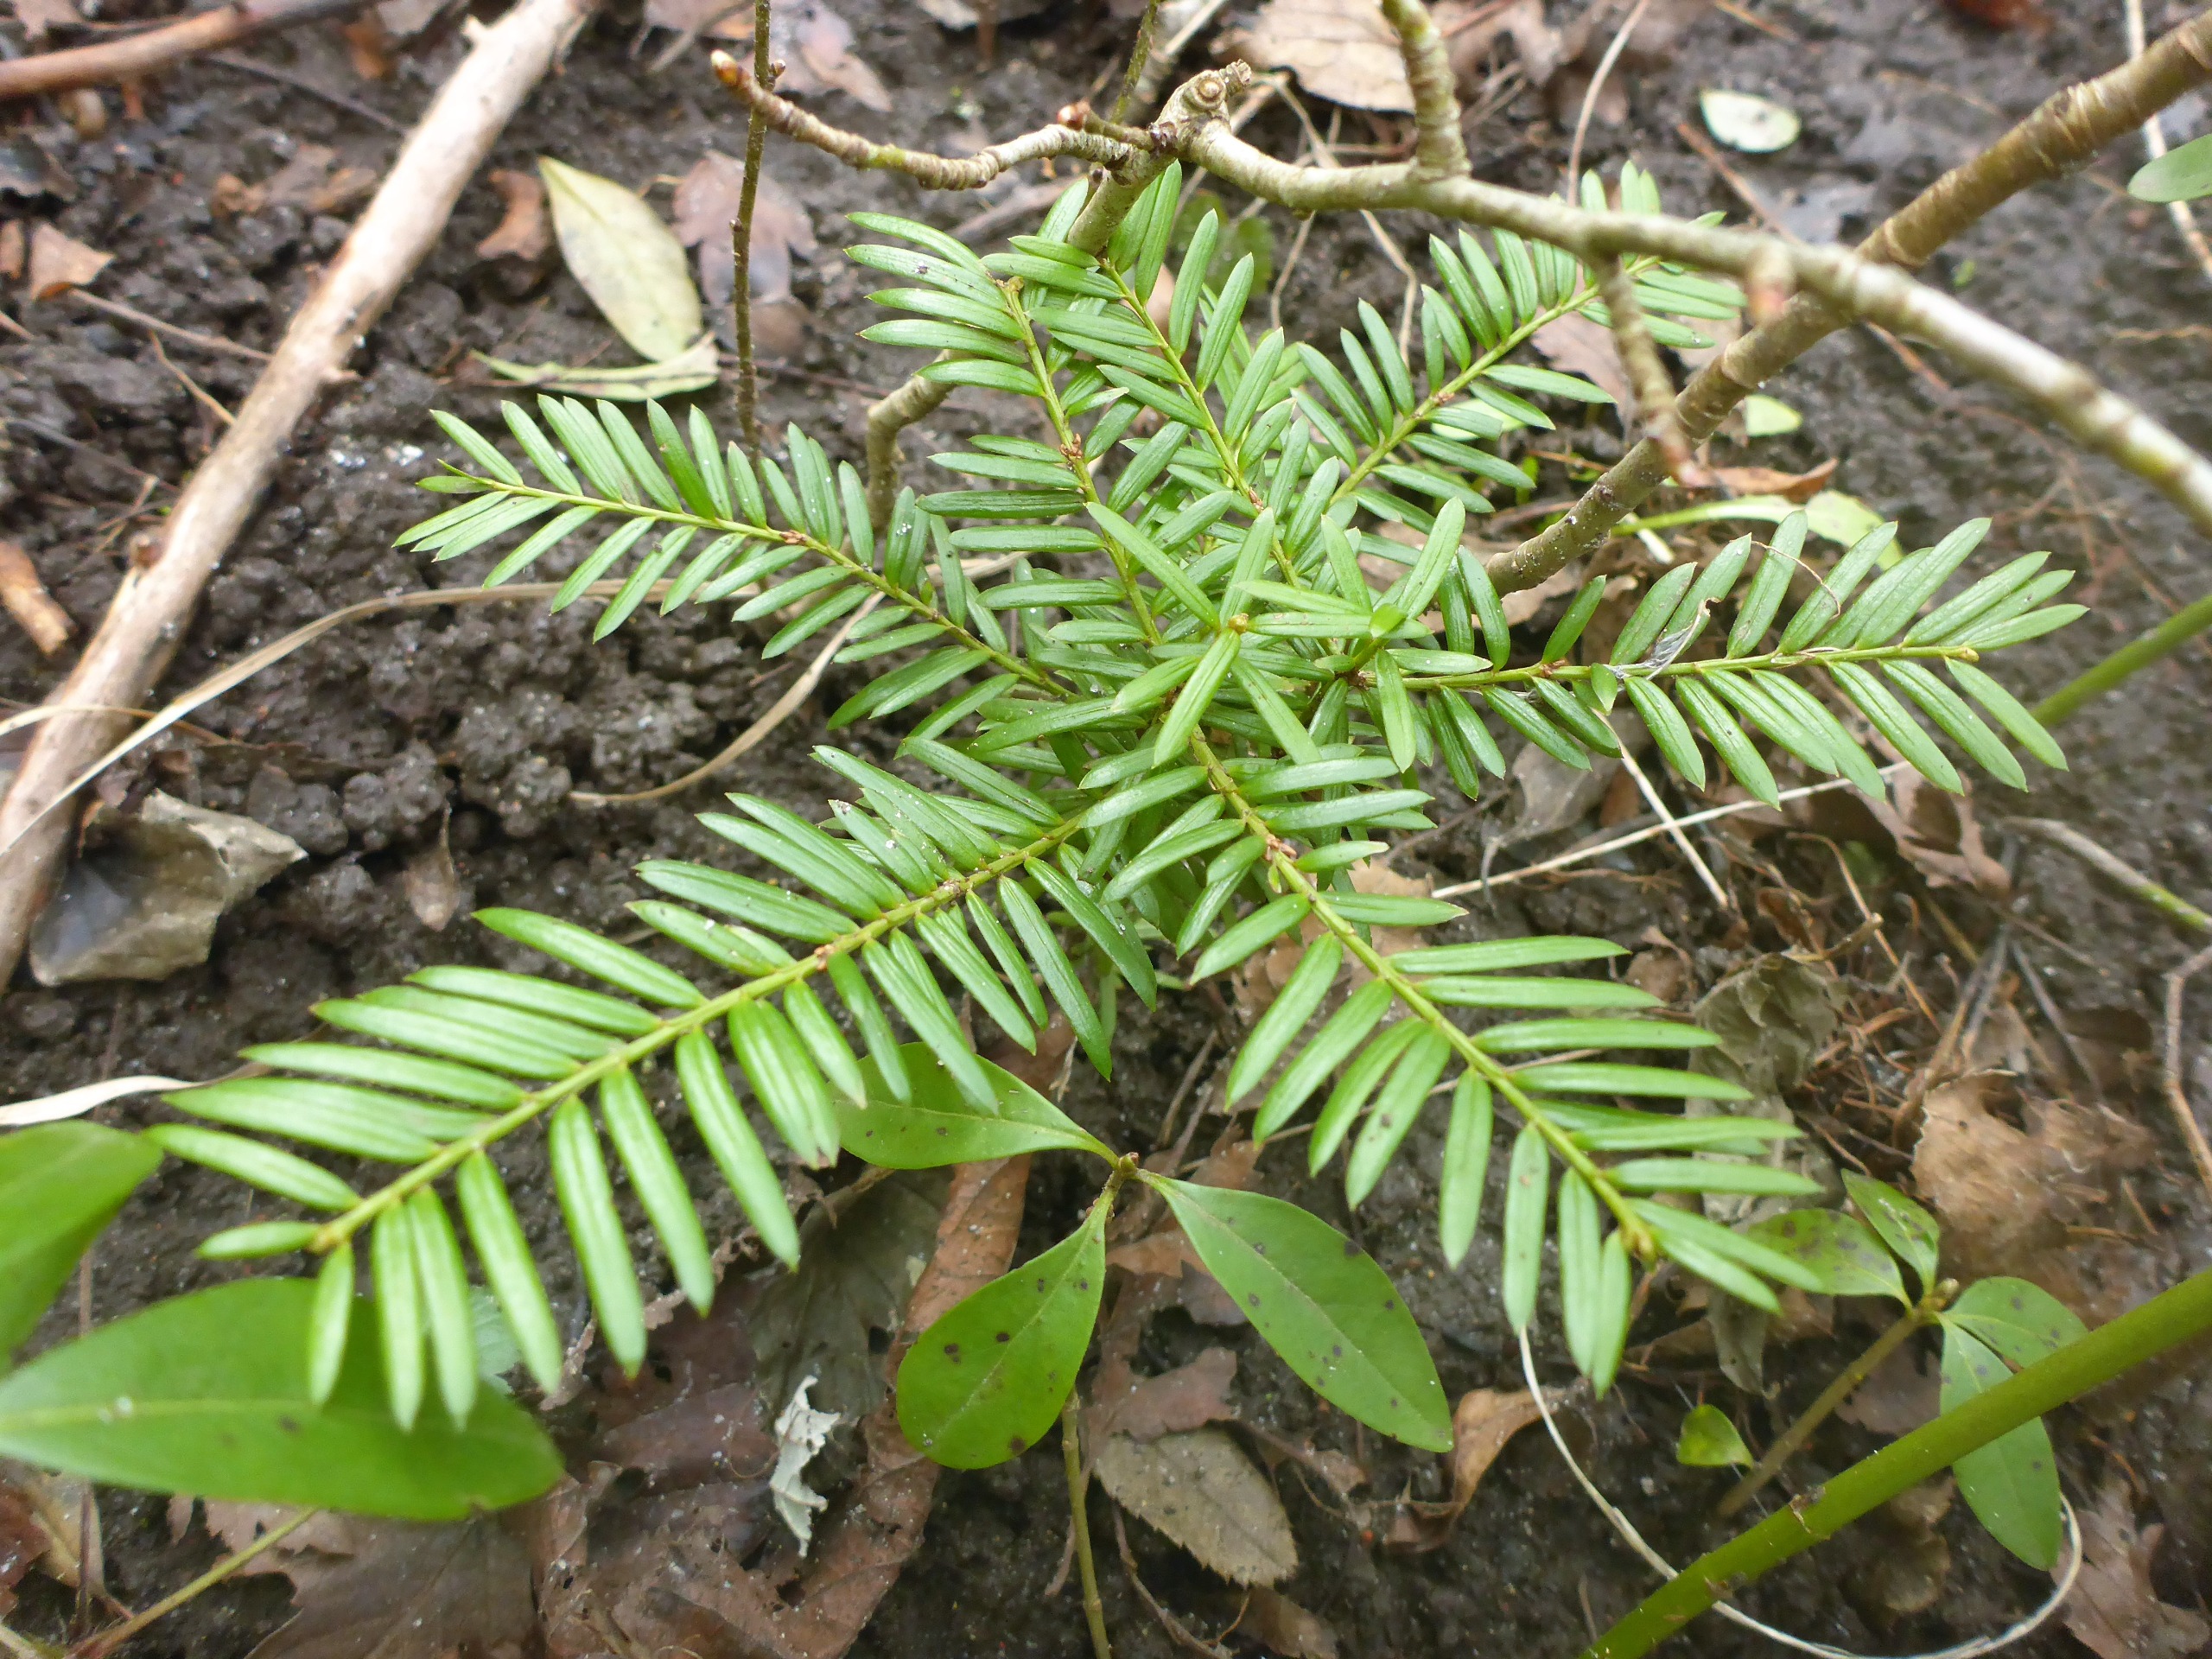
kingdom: Plantae
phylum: Tracheophyta
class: Pinopsida
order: Pinales
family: Taxaceae
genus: Taxus
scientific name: Taxus baccata
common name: Almindelig taks
